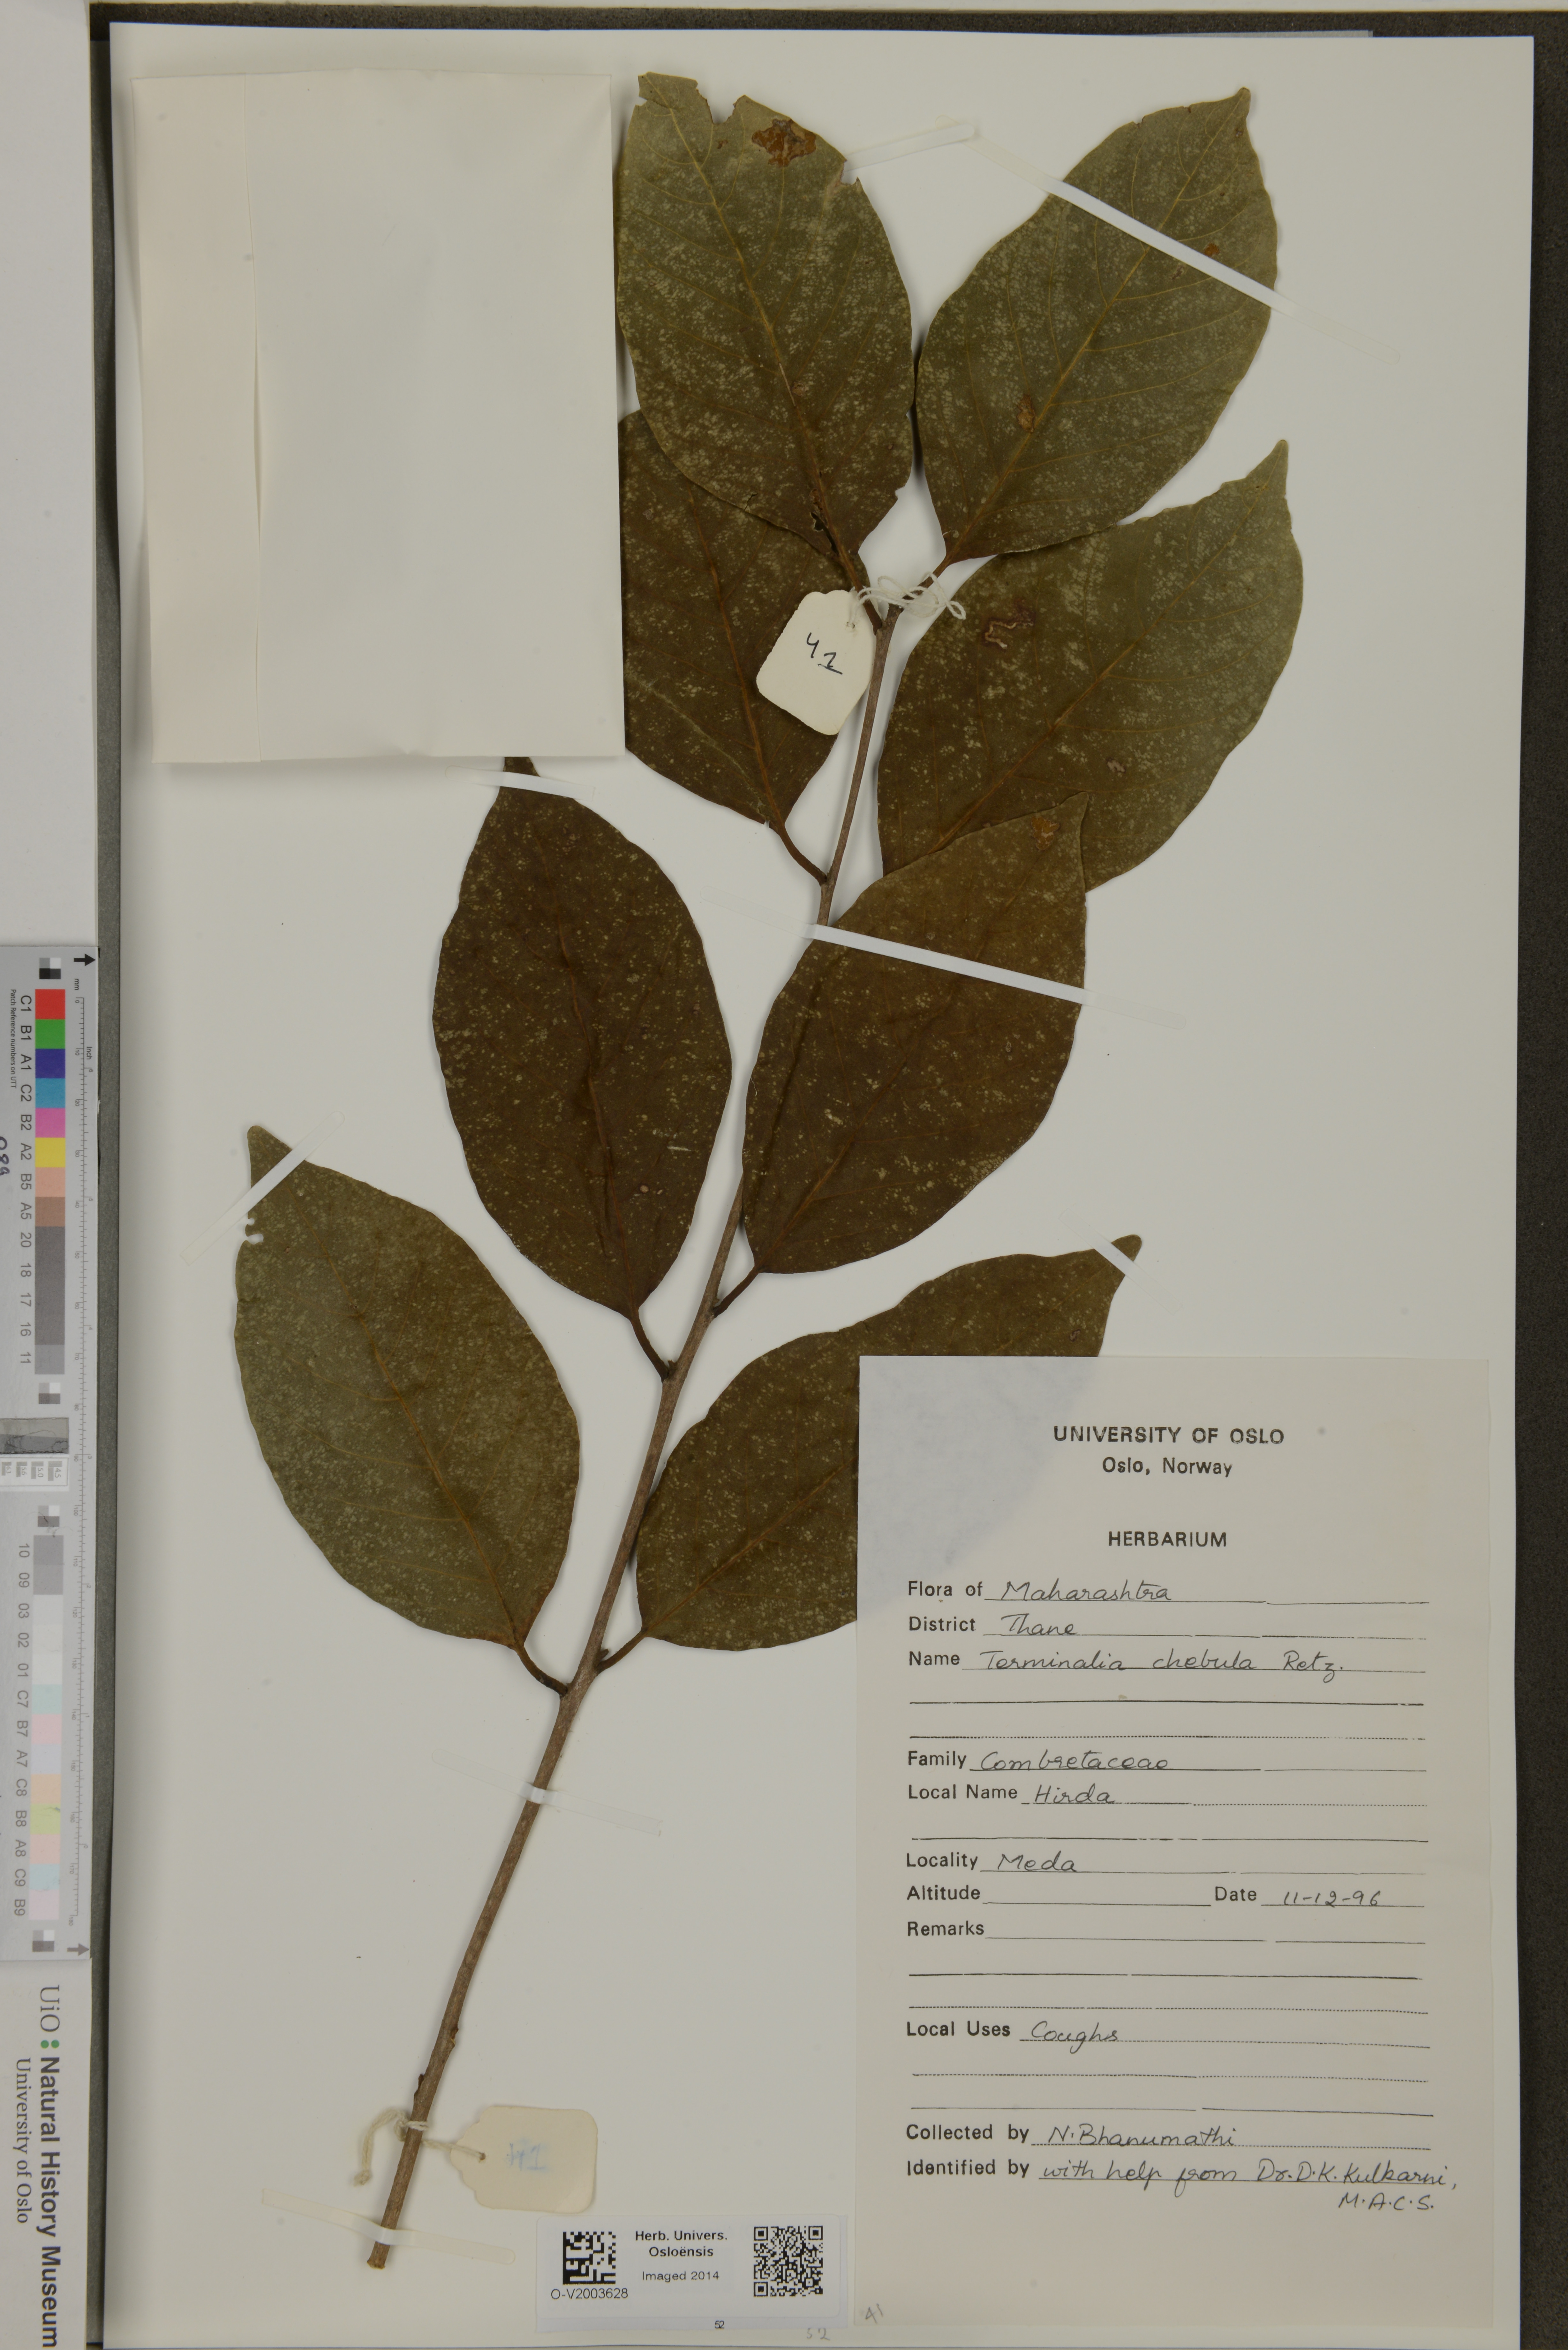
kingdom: Plantae
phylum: Tracheophyta
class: Magnoliopsida
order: Myrtales
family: Combretaceae
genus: Terminalia
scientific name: Terminalia chebula
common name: Myrobalan
